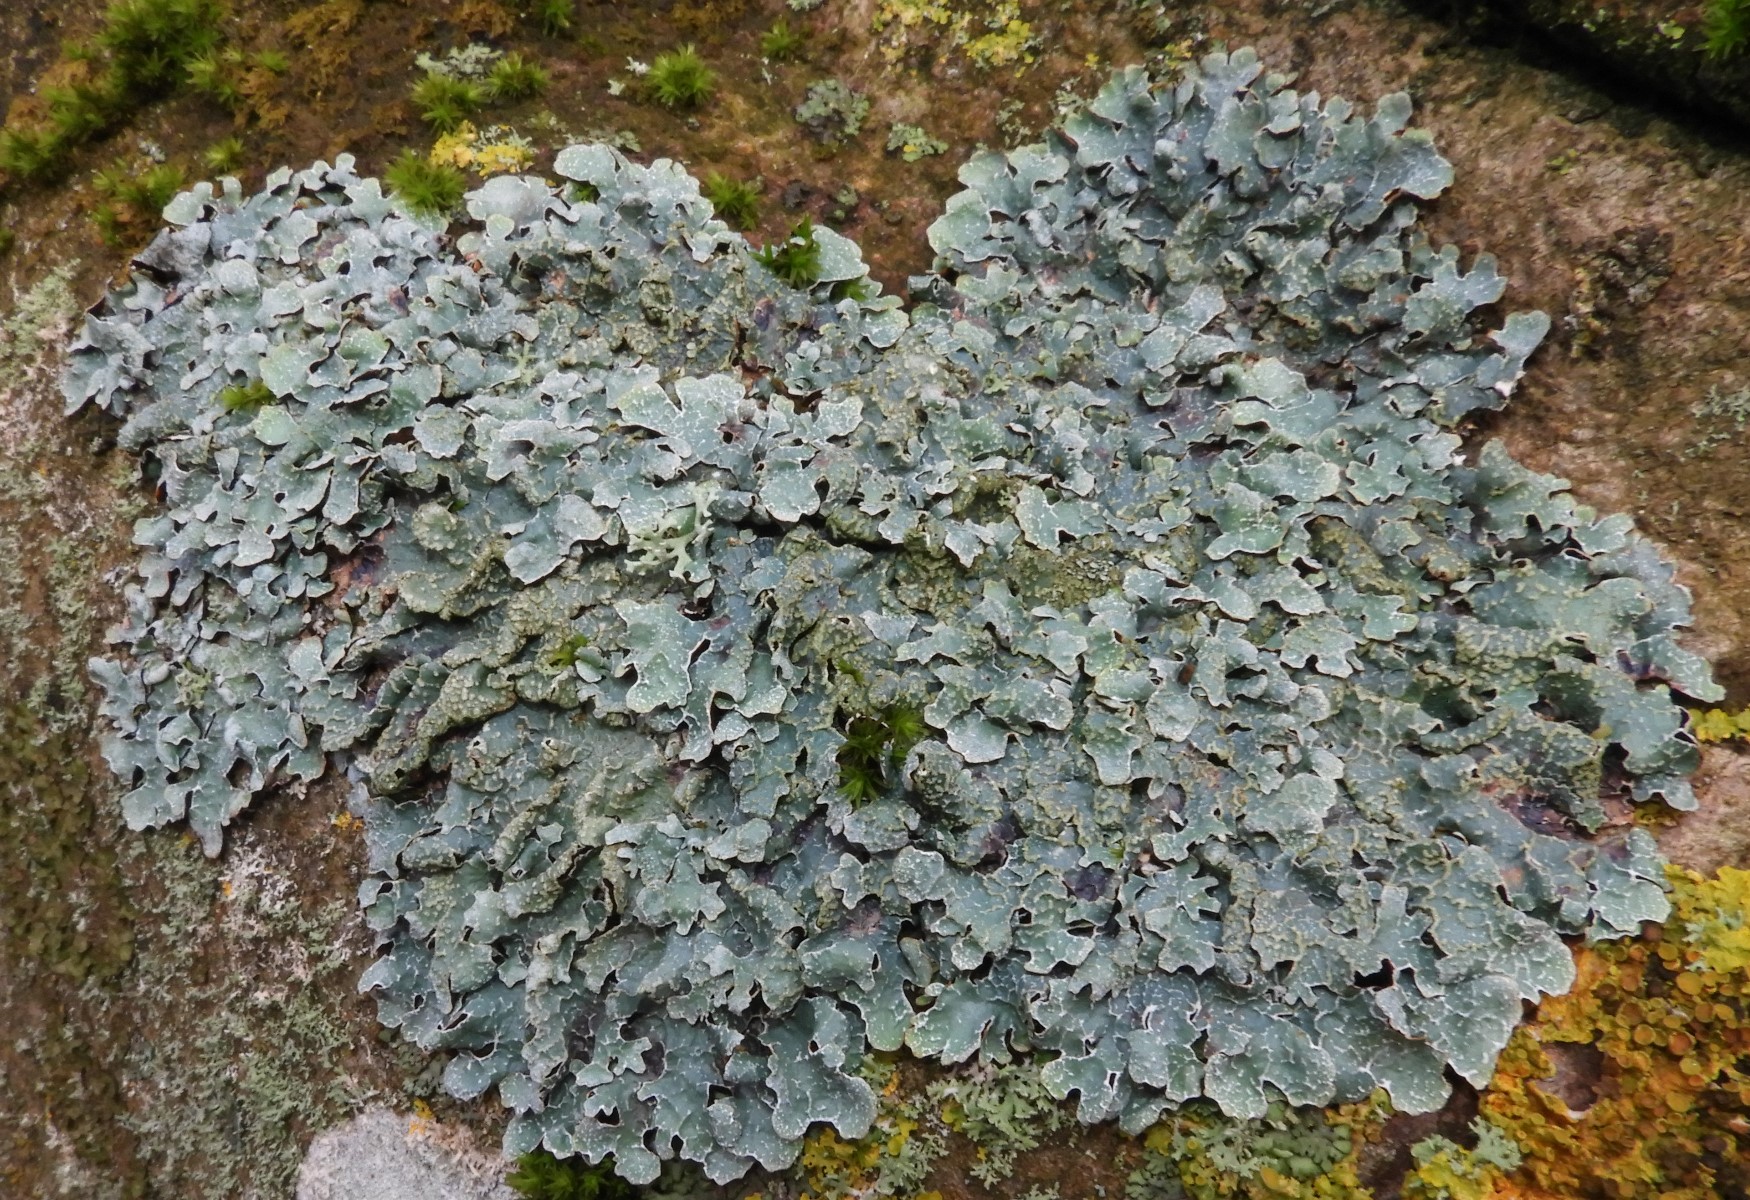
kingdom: Fungi
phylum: Ascomycota
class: Lecanoromycetes
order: Lecanorales
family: Parmeliaceae
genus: Parmelia
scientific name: Parmelia sulcata
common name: rynket skållav
